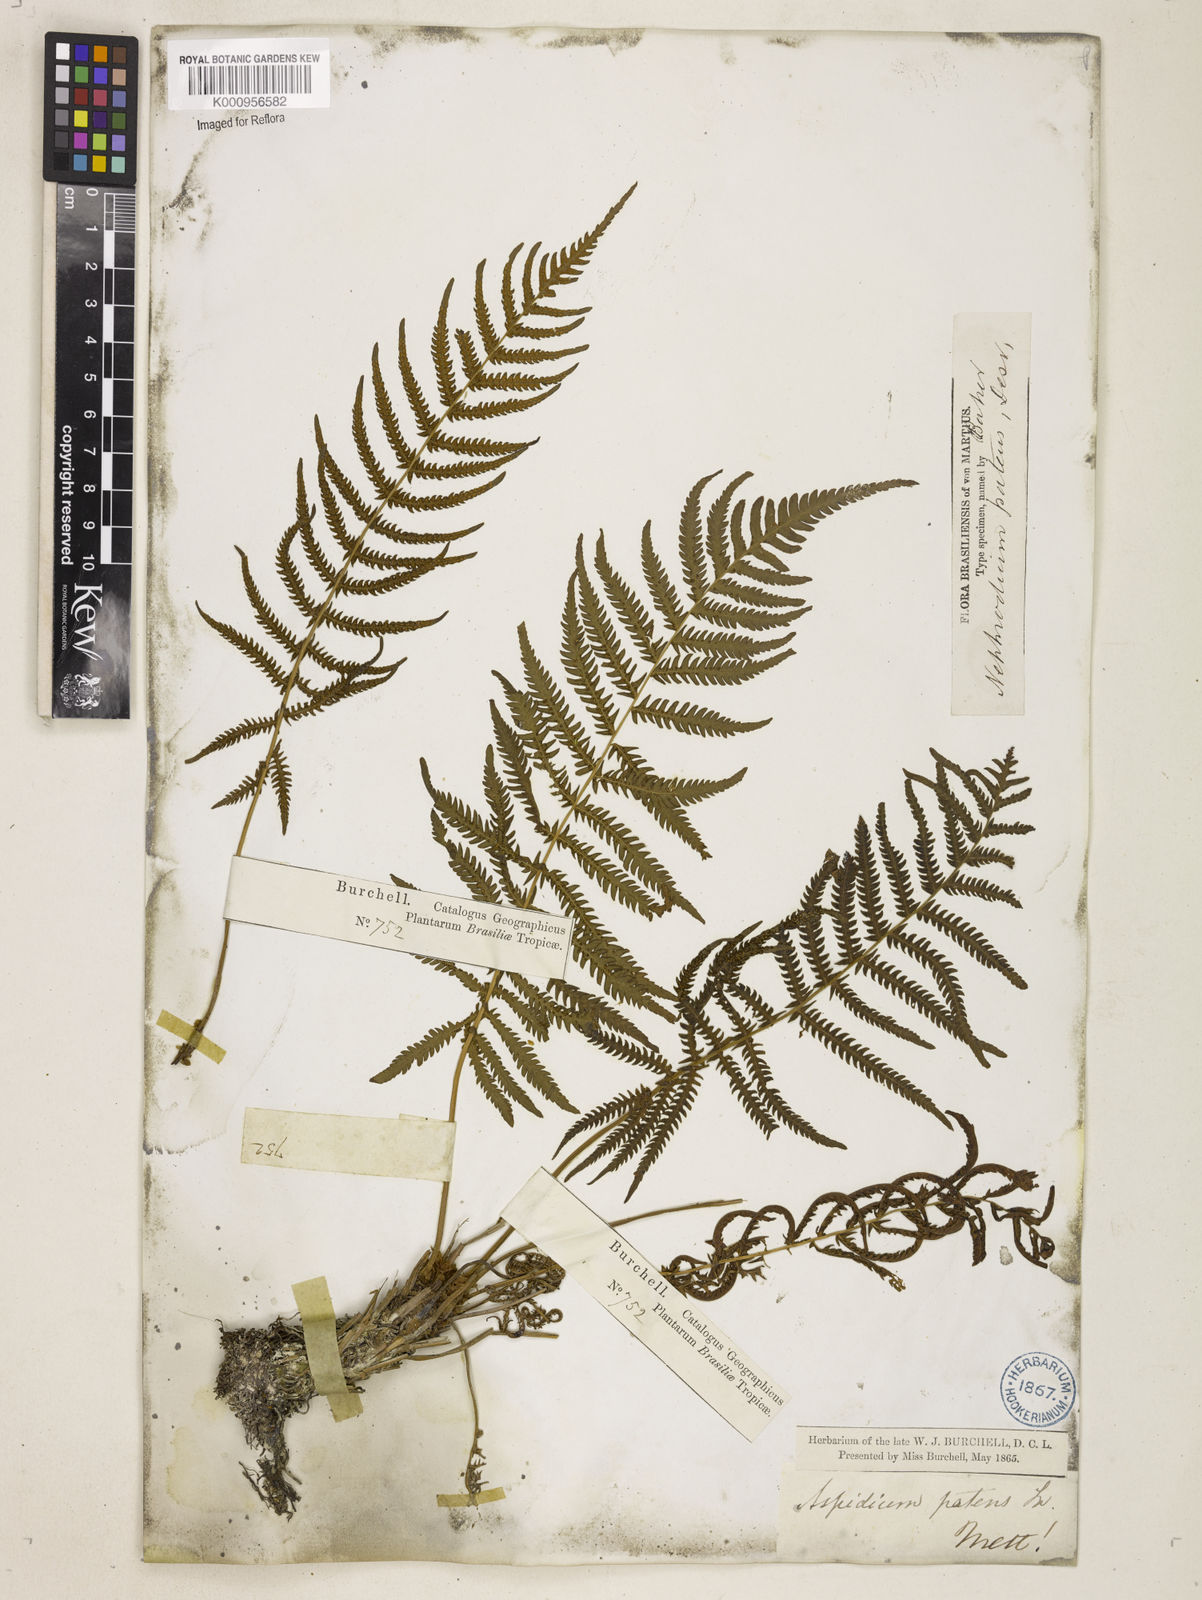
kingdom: Plantae
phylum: Tracheophyta
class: Polypodiopsida
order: Polypodiales
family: Thelypteridaceae
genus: Pelazoneuron
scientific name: Pelazoneuron patens
